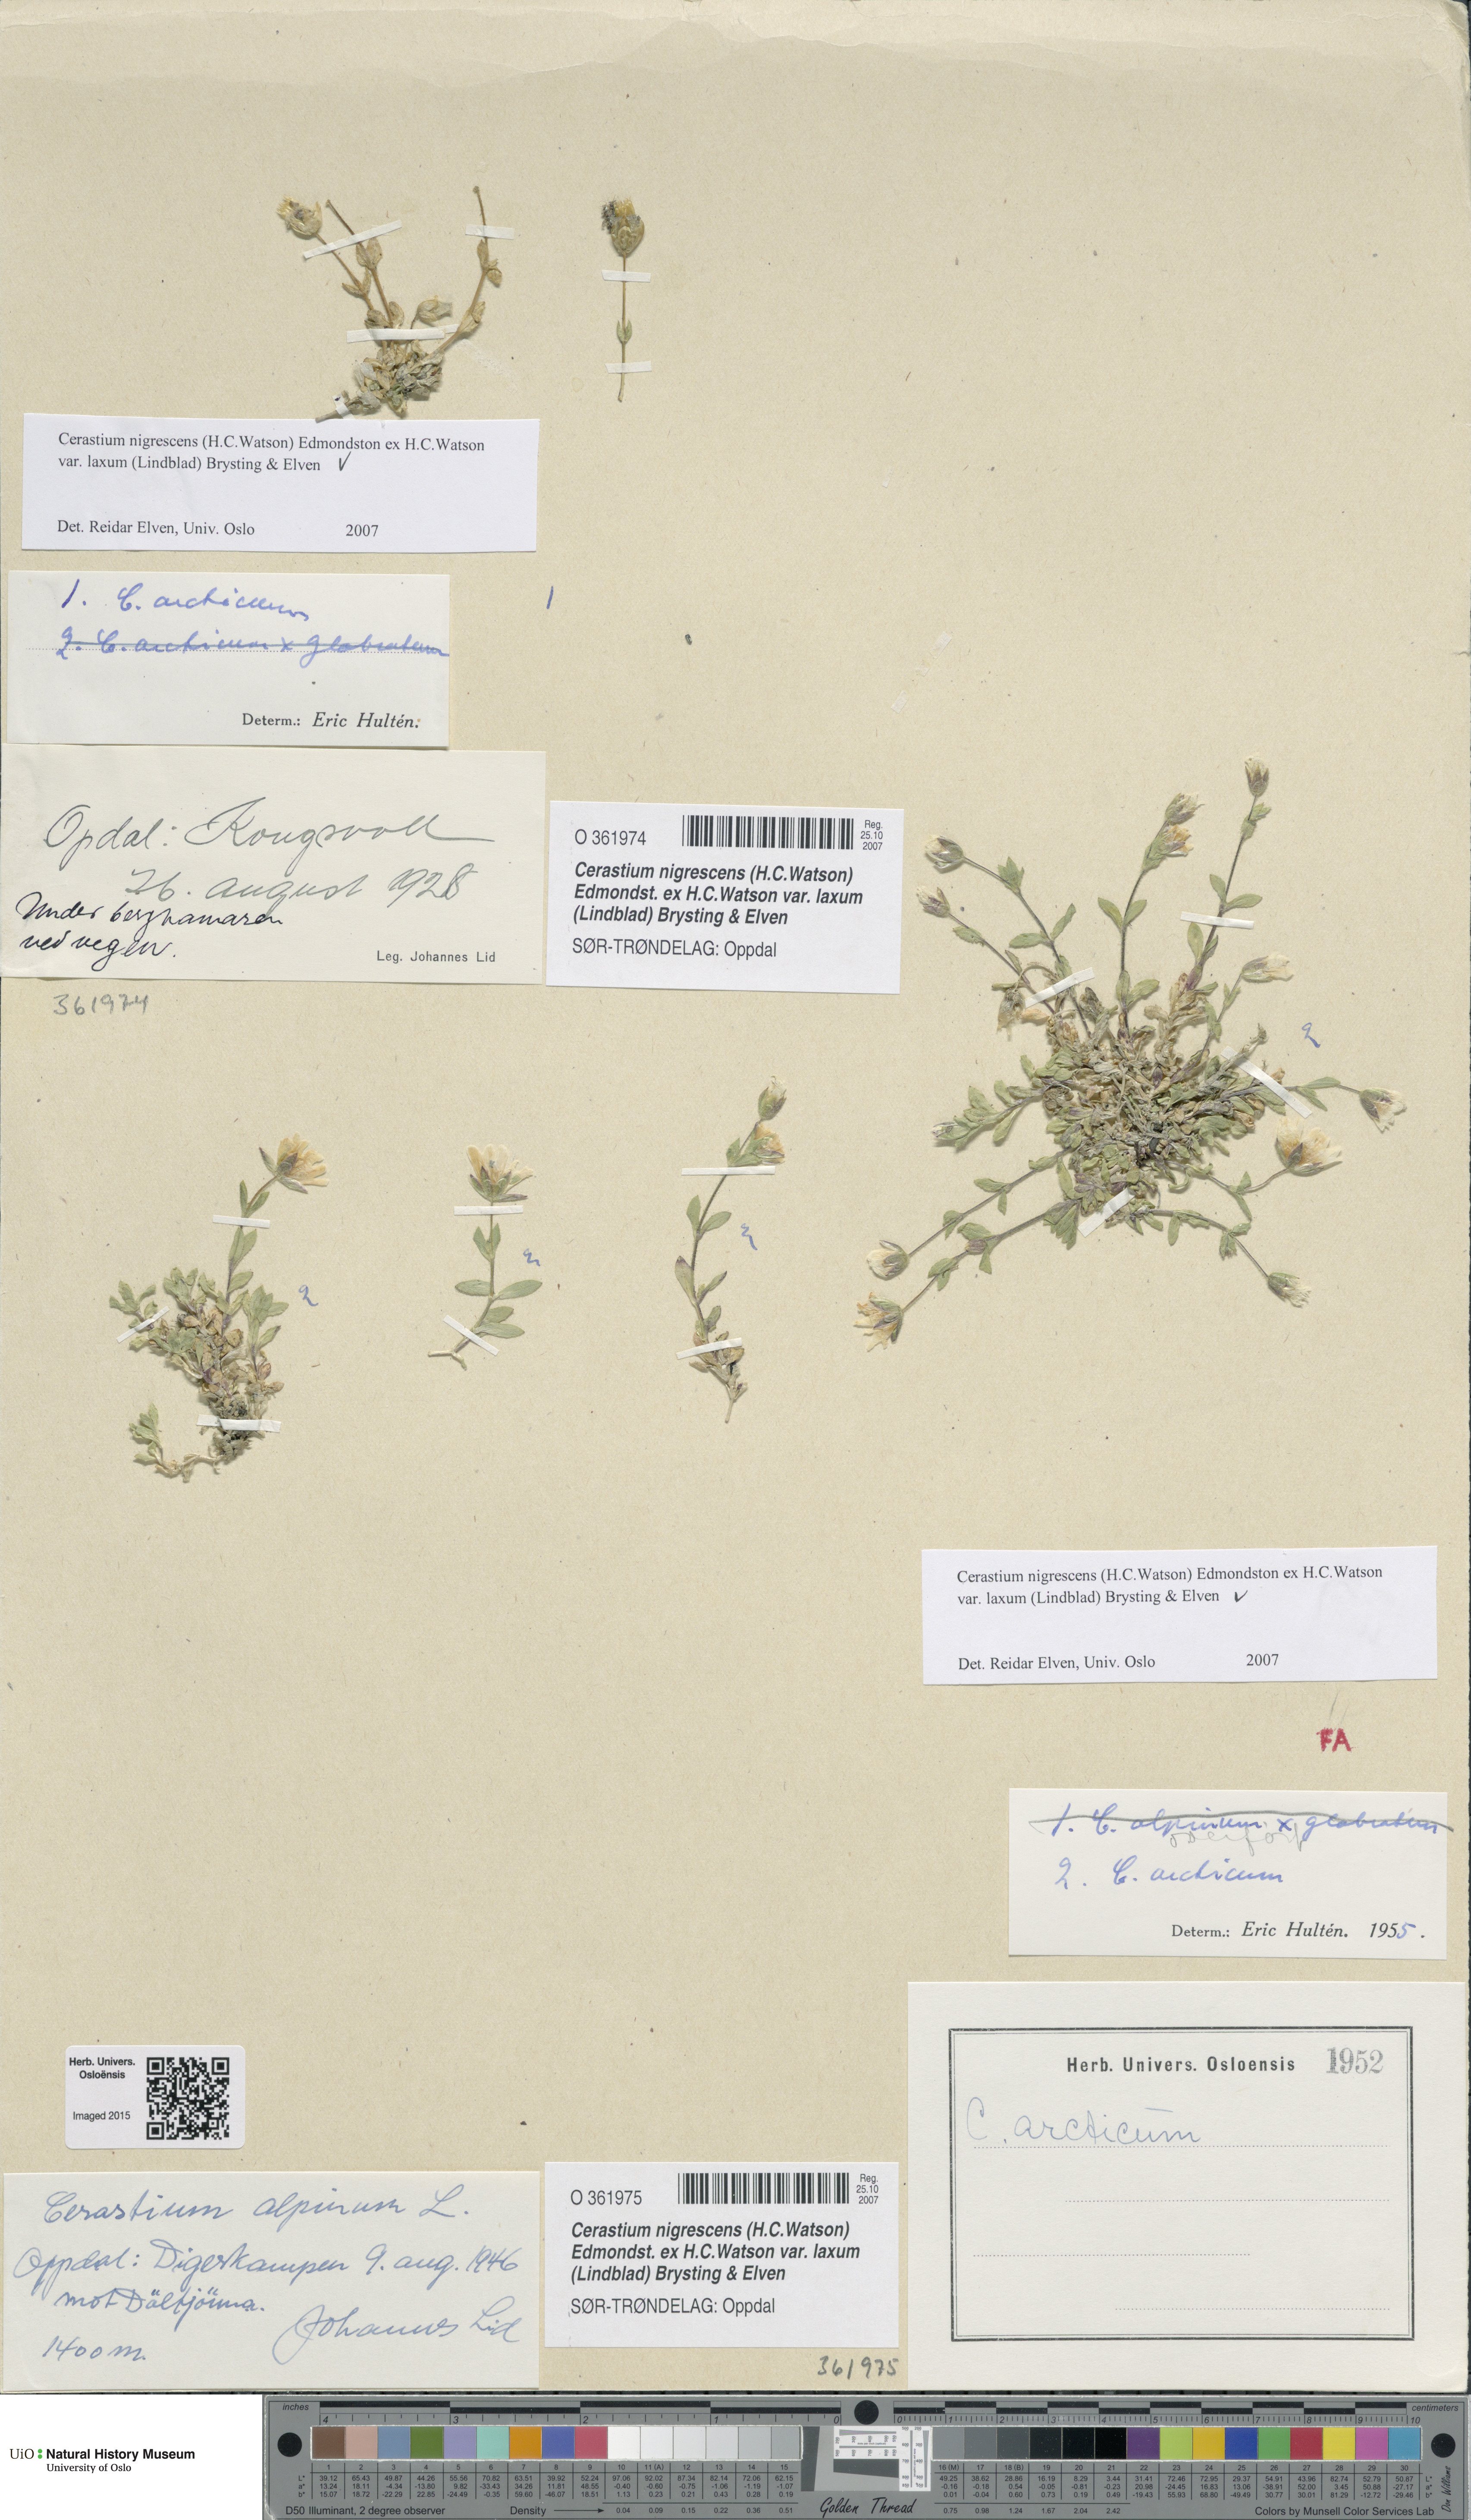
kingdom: Plantae
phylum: Tracheophyta
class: Magnoliopsida
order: Caryophyllales
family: Caryophyllaceae
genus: Cerastium
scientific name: Cerastium nigrescens
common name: Shetland mouse-ear
